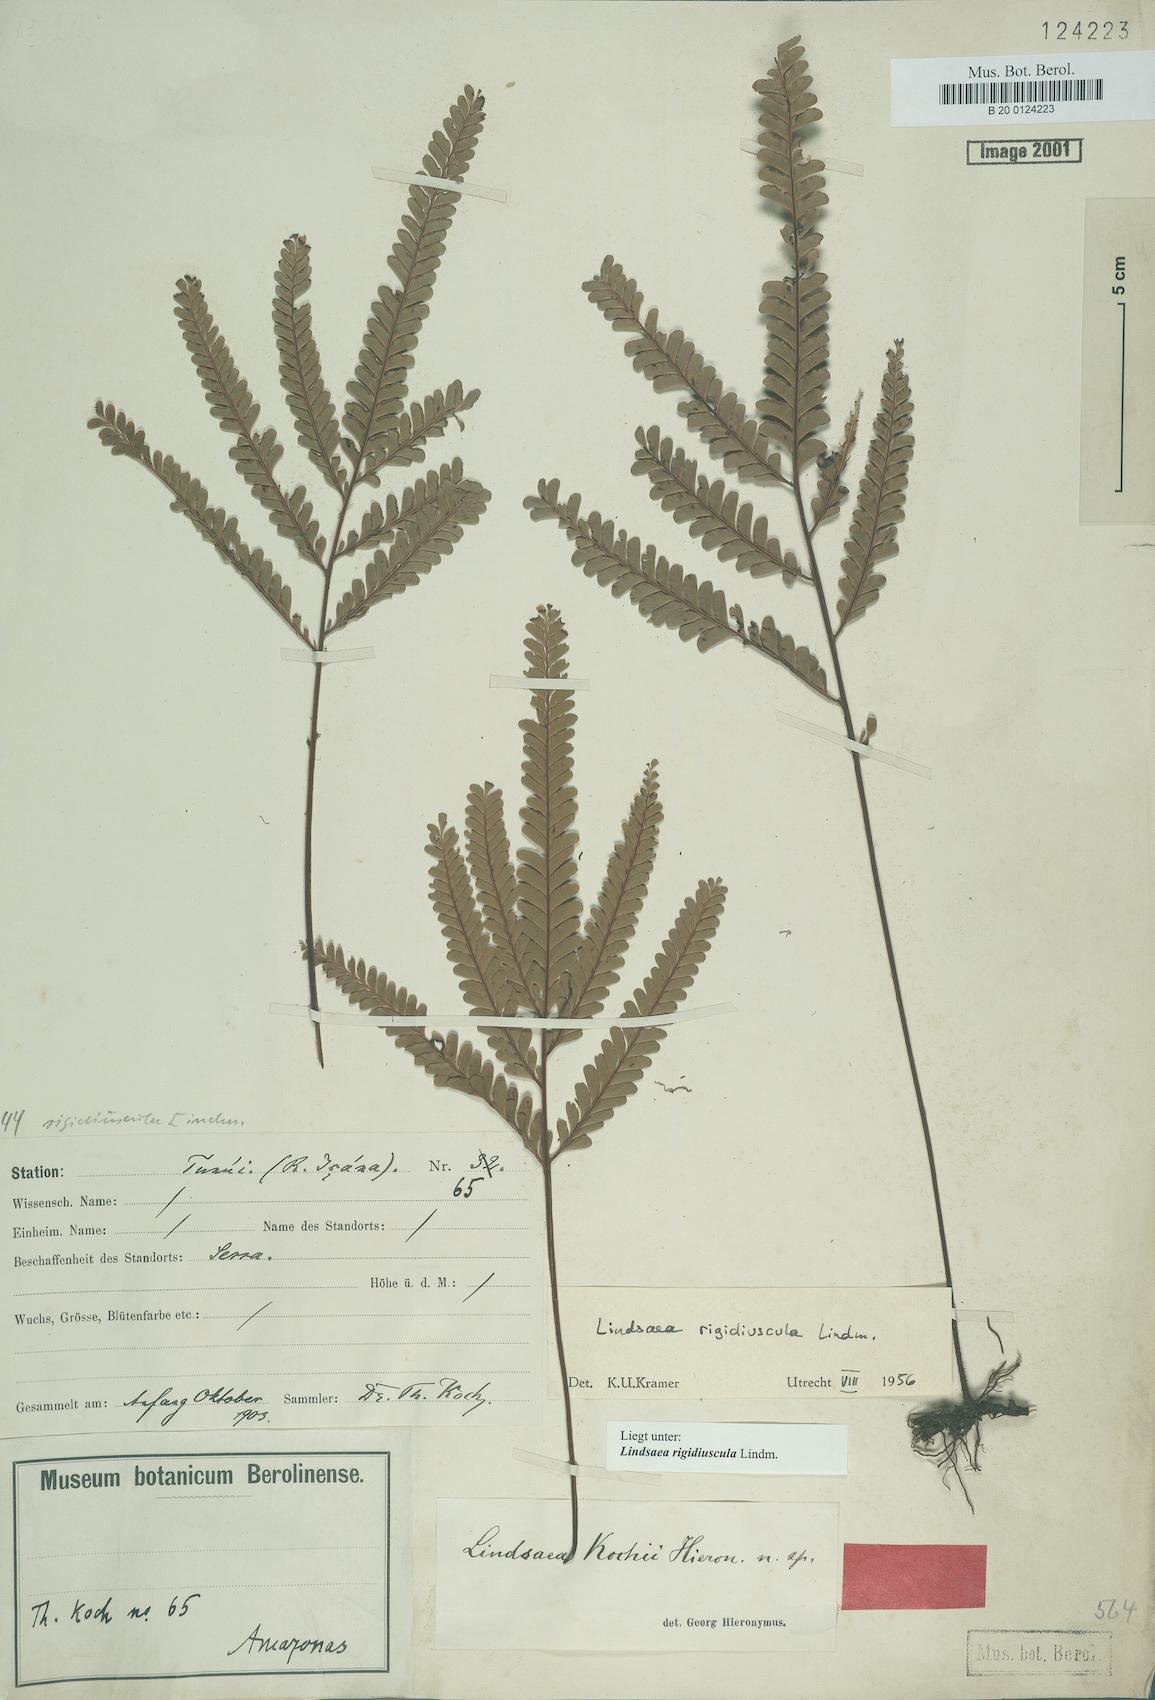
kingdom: Plantae
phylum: Tracheophyta
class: Polypodiopsida
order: Polypodiales
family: Lindsaeaceae
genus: Lindsaea
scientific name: Lindsaea rigidiuscula
